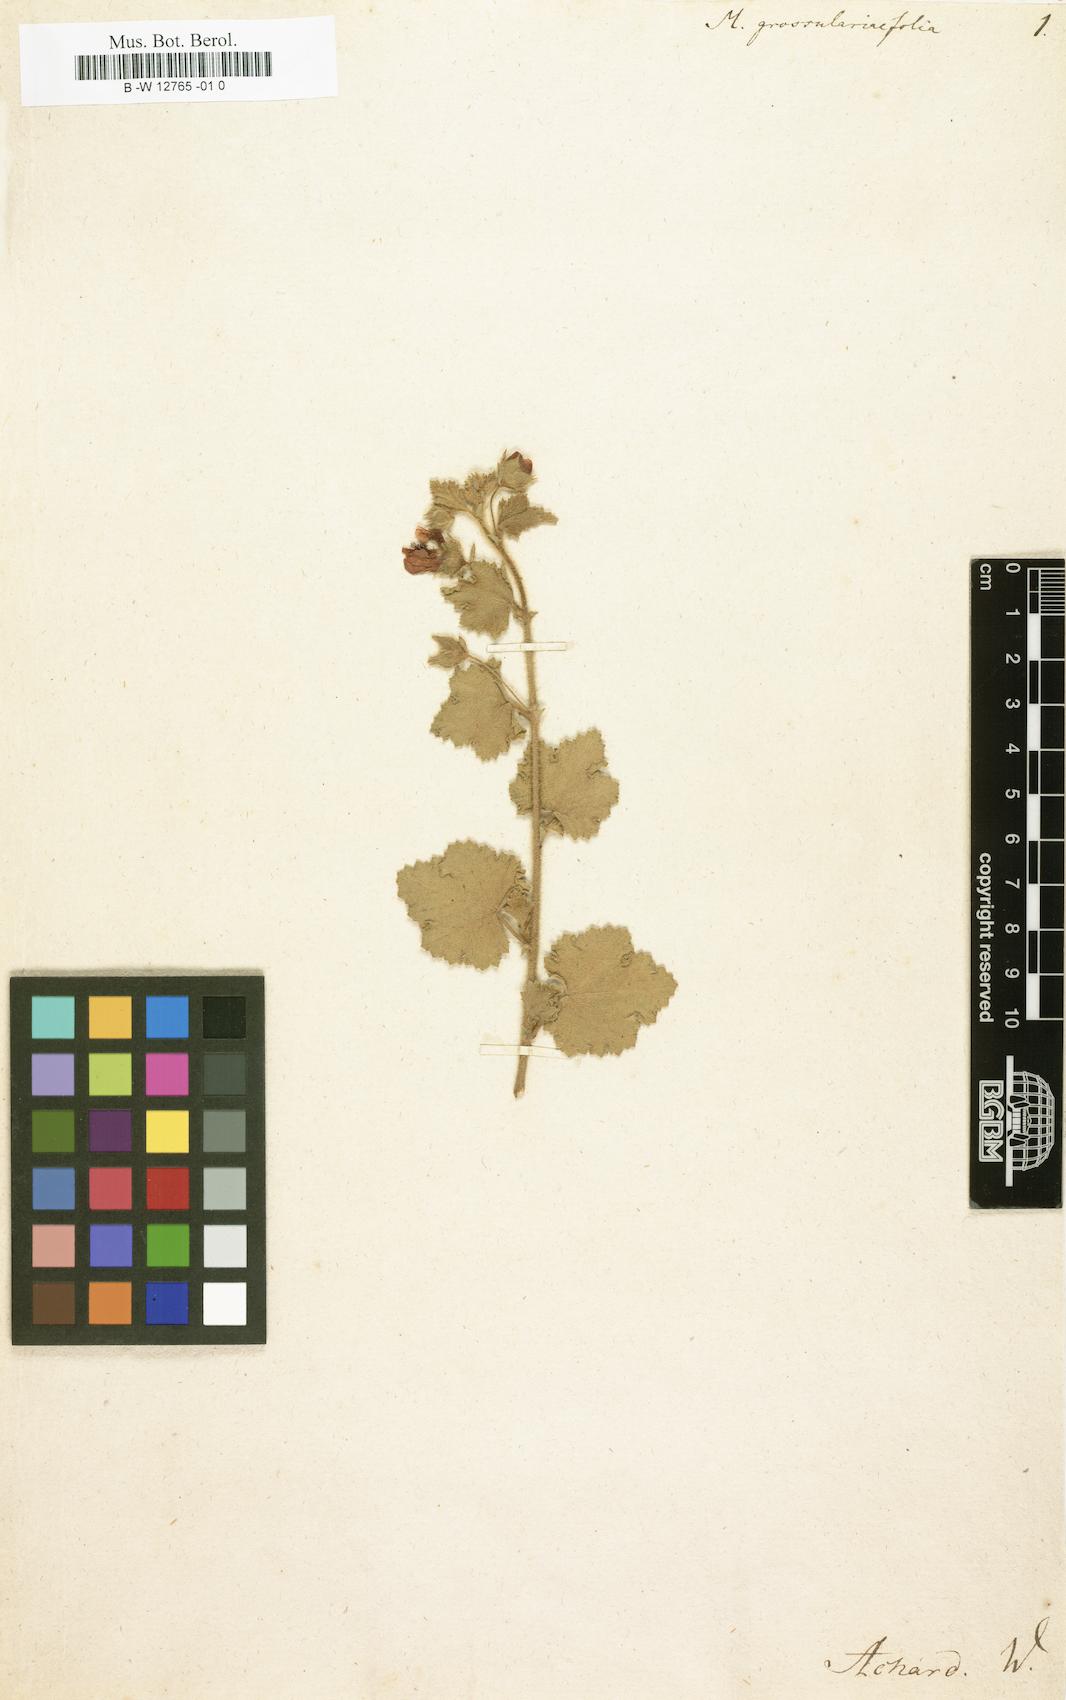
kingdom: Plantae
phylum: Tracheophyta
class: Magnoliopsida
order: Malvales
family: Malvaceae
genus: Anisodontea
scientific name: Anisodontea
